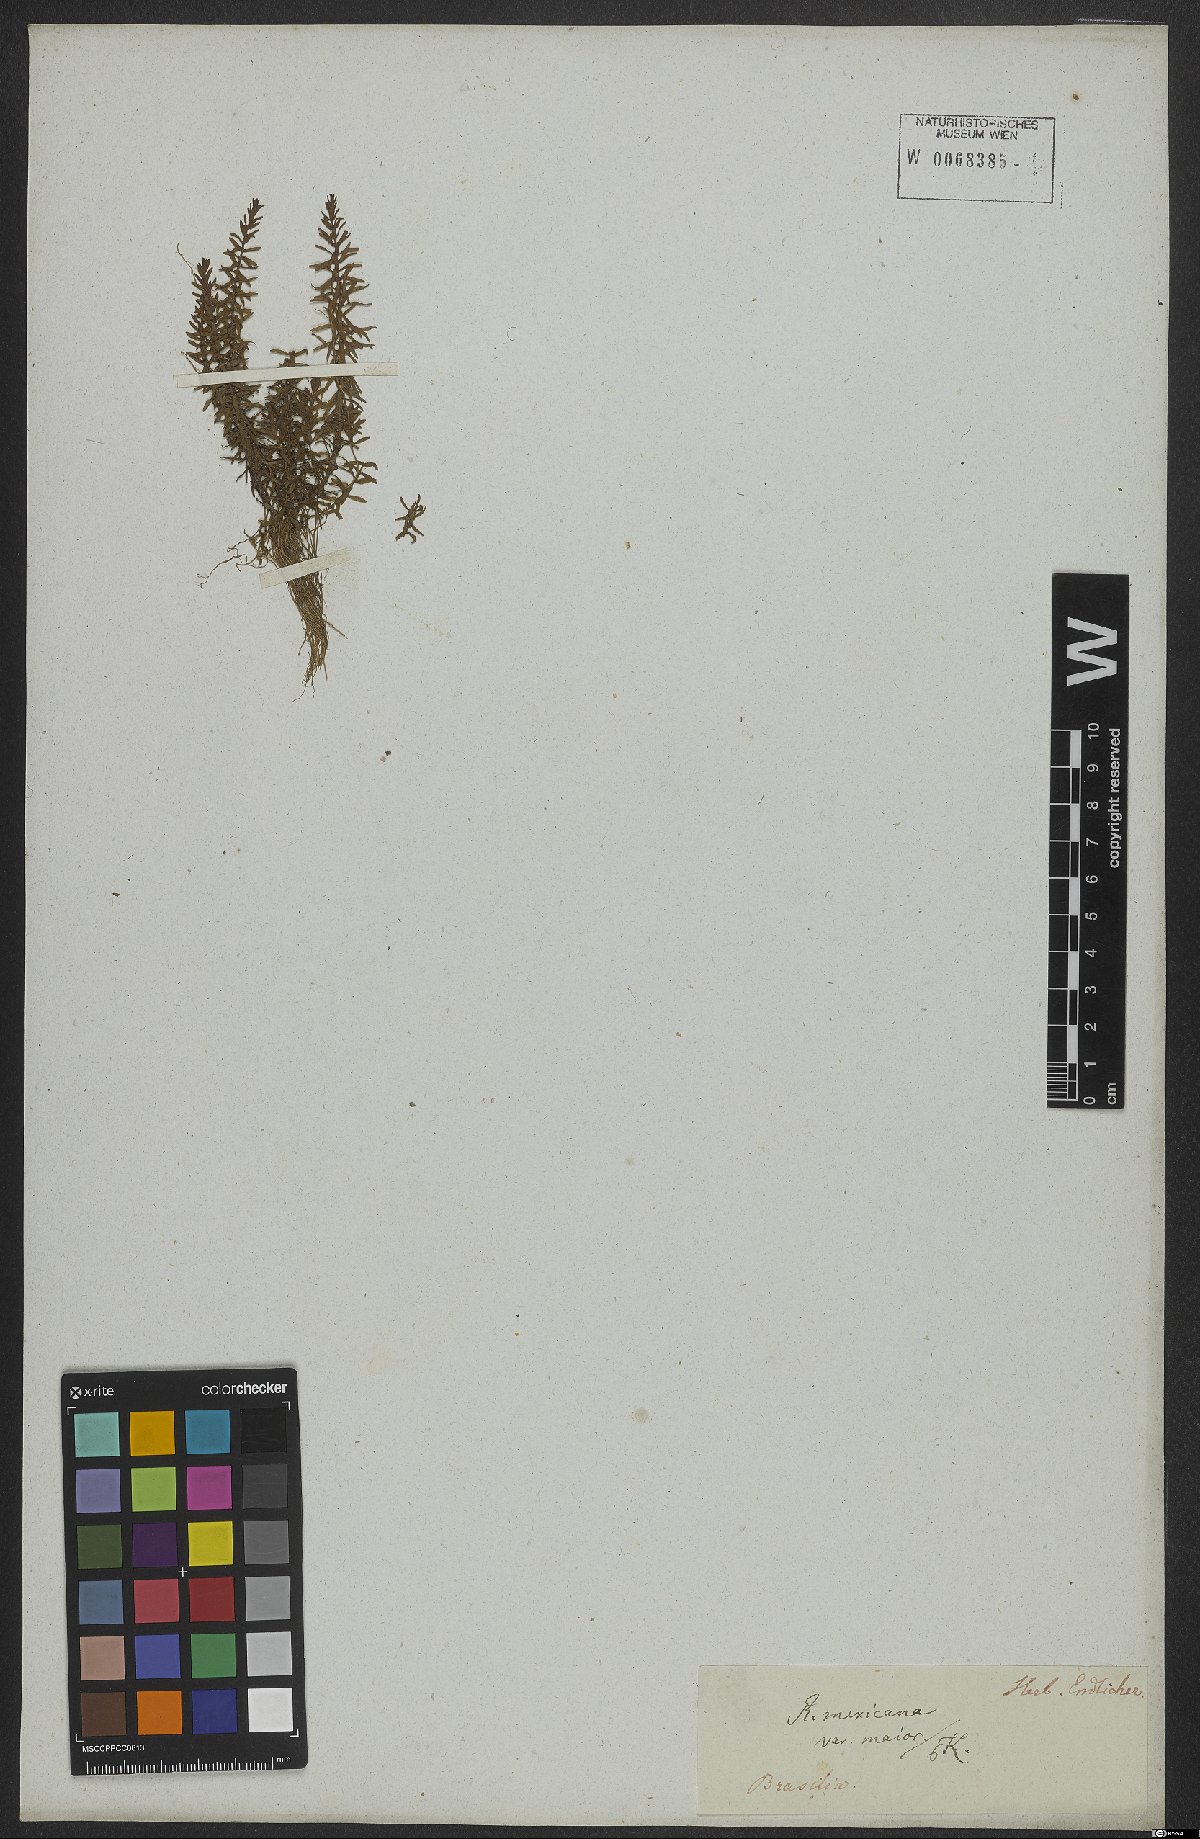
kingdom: Plantae
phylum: Tracheophyta
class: Magnoliopsida
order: Myrtales
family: Lythraceae
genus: Rotala
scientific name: Rotala mexicana
